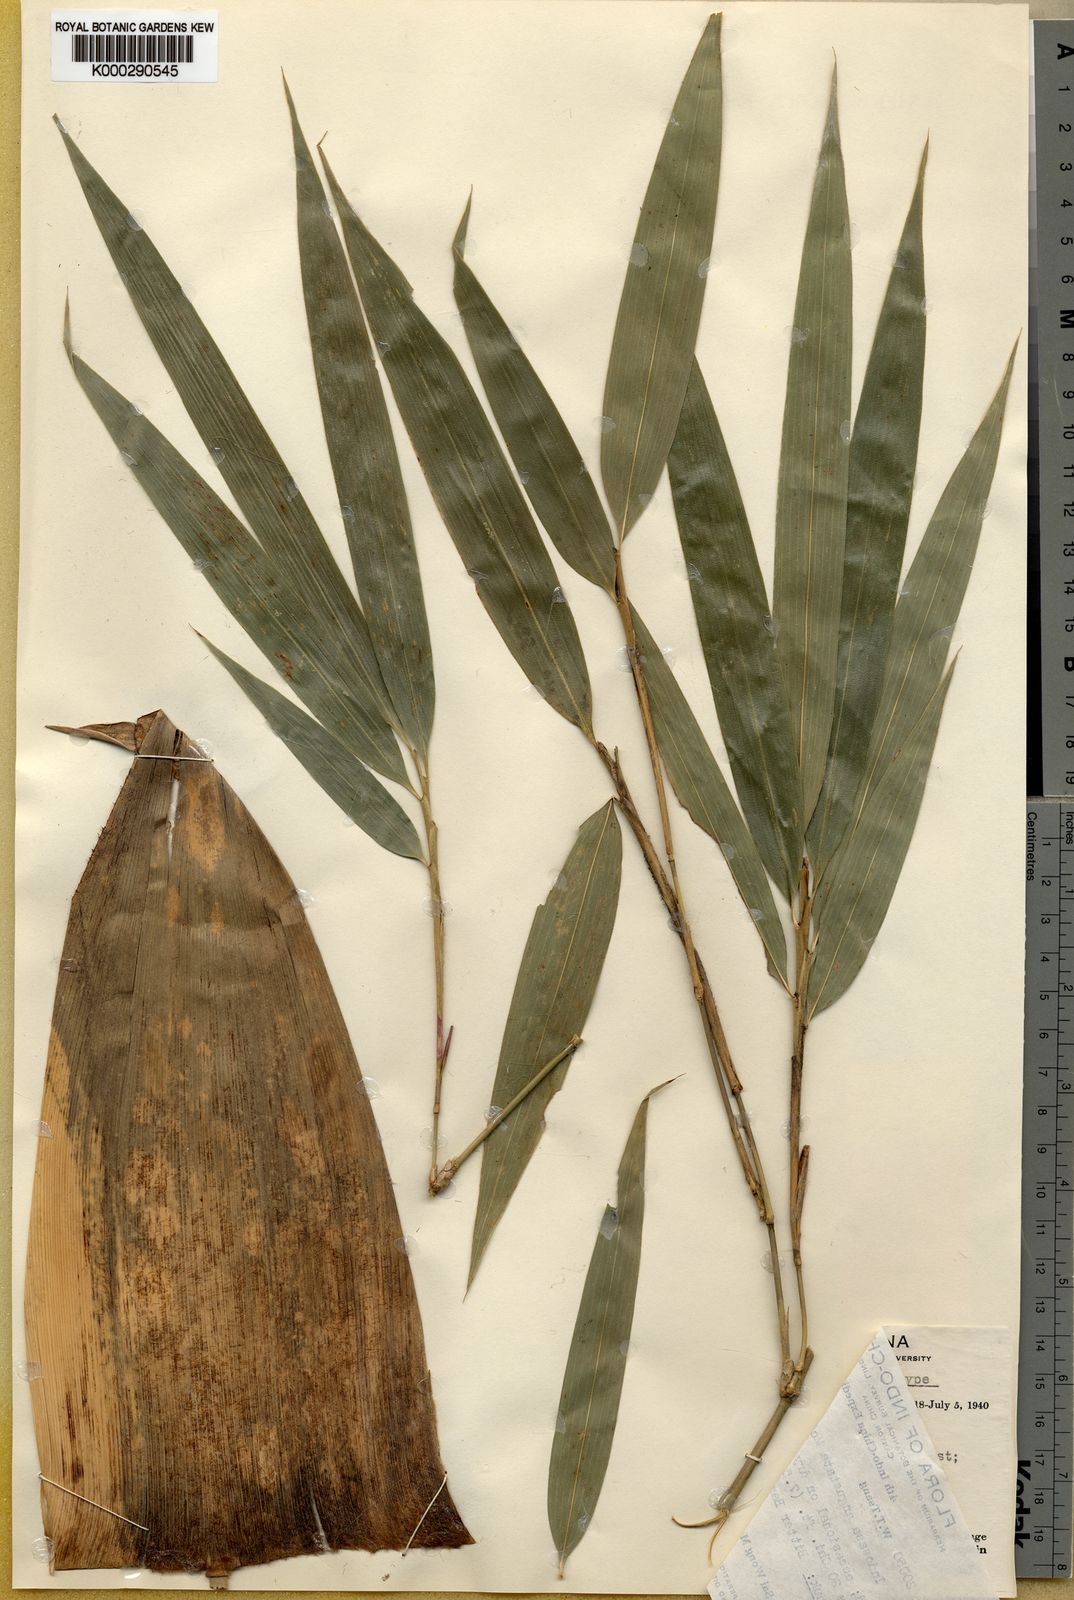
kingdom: Plantae
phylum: Tracheophyta
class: Liliopsida
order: Poales
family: Poaceae
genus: Indosasa
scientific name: Indosasa angustata
